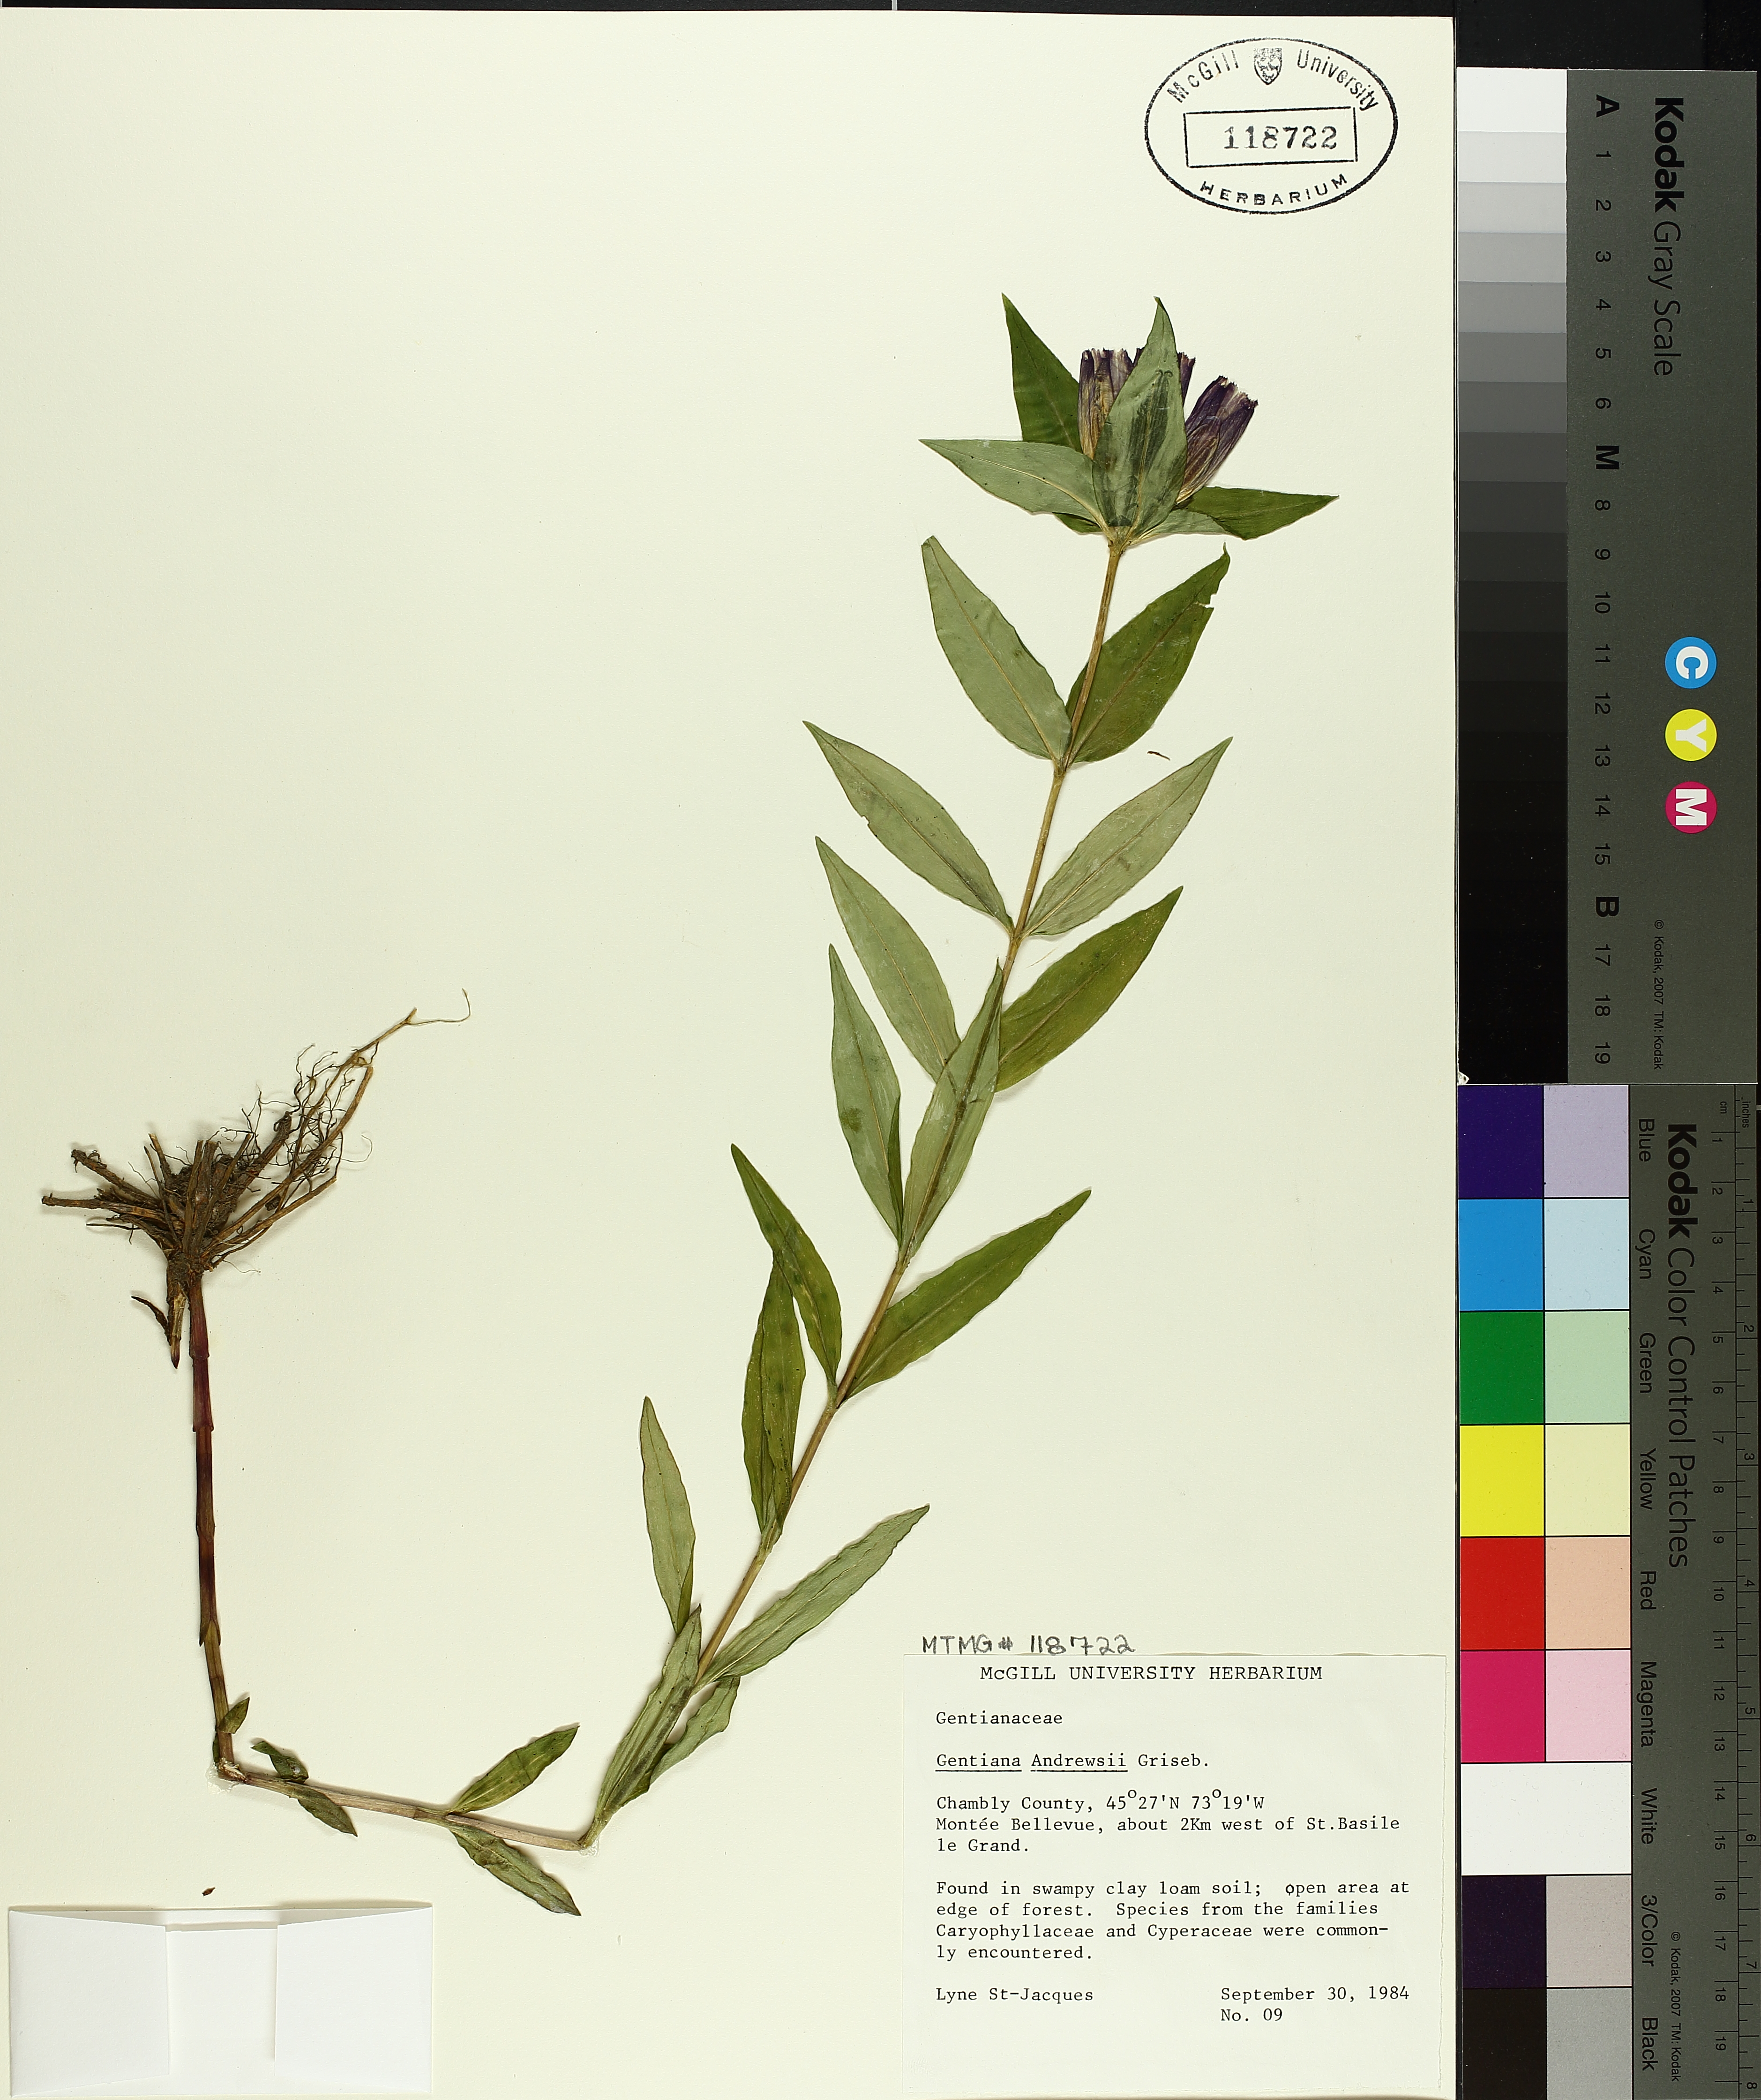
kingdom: Plantae
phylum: Tracheophyta
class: Magnoliopsida
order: Gentianales
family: Gentianaceae
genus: Gentiana
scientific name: Gentiana andrewsii
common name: Bottle gentian
